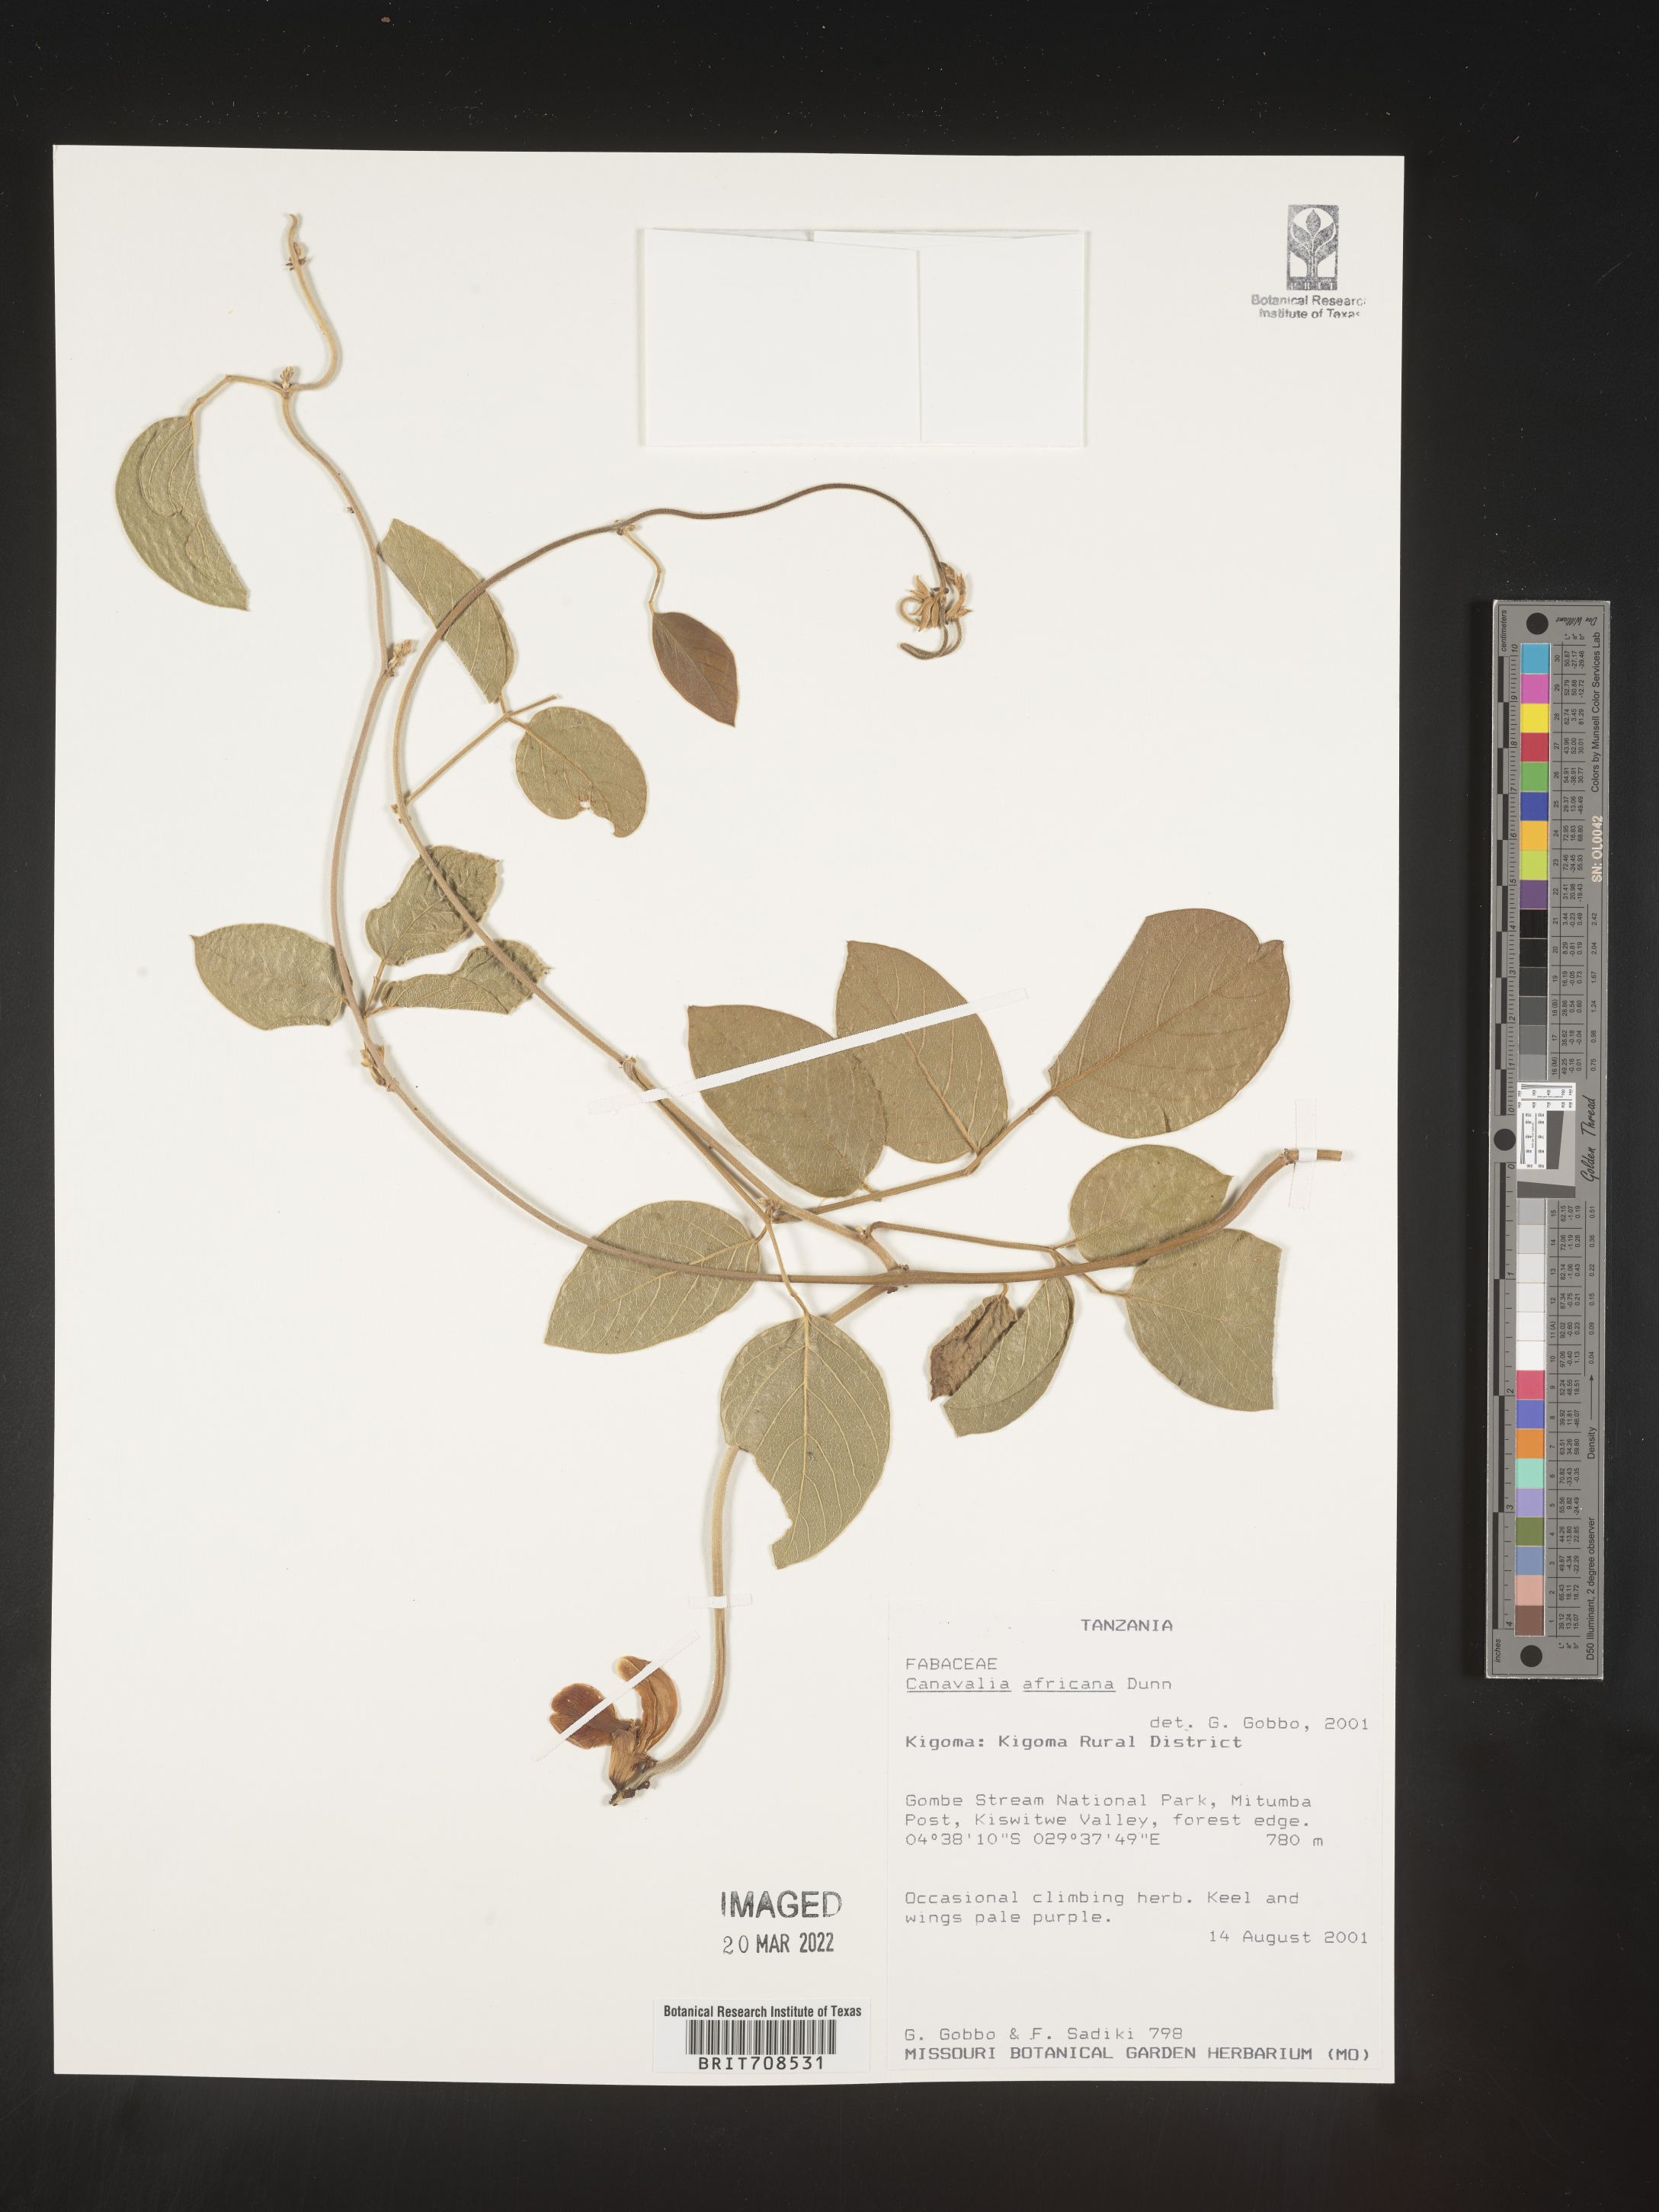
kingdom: Plantae
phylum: Tracheophyta
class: Magnoliopsida
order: Fabales
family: Fabaceae
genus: Canavalia
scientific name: Canavalia
